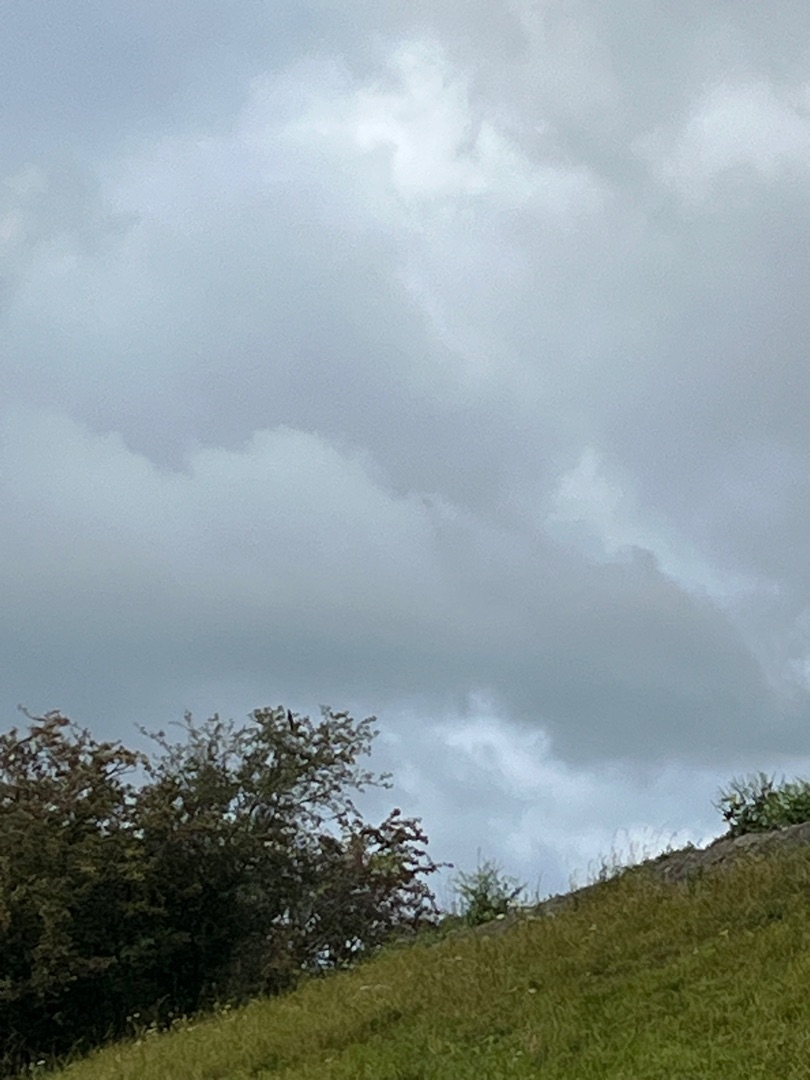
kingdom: Animalia
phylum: Chordata
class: Aves
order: Passeriformes
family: Hirundinidae
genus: Hirundo
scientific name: Hirundo rustica
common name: Landsvale
